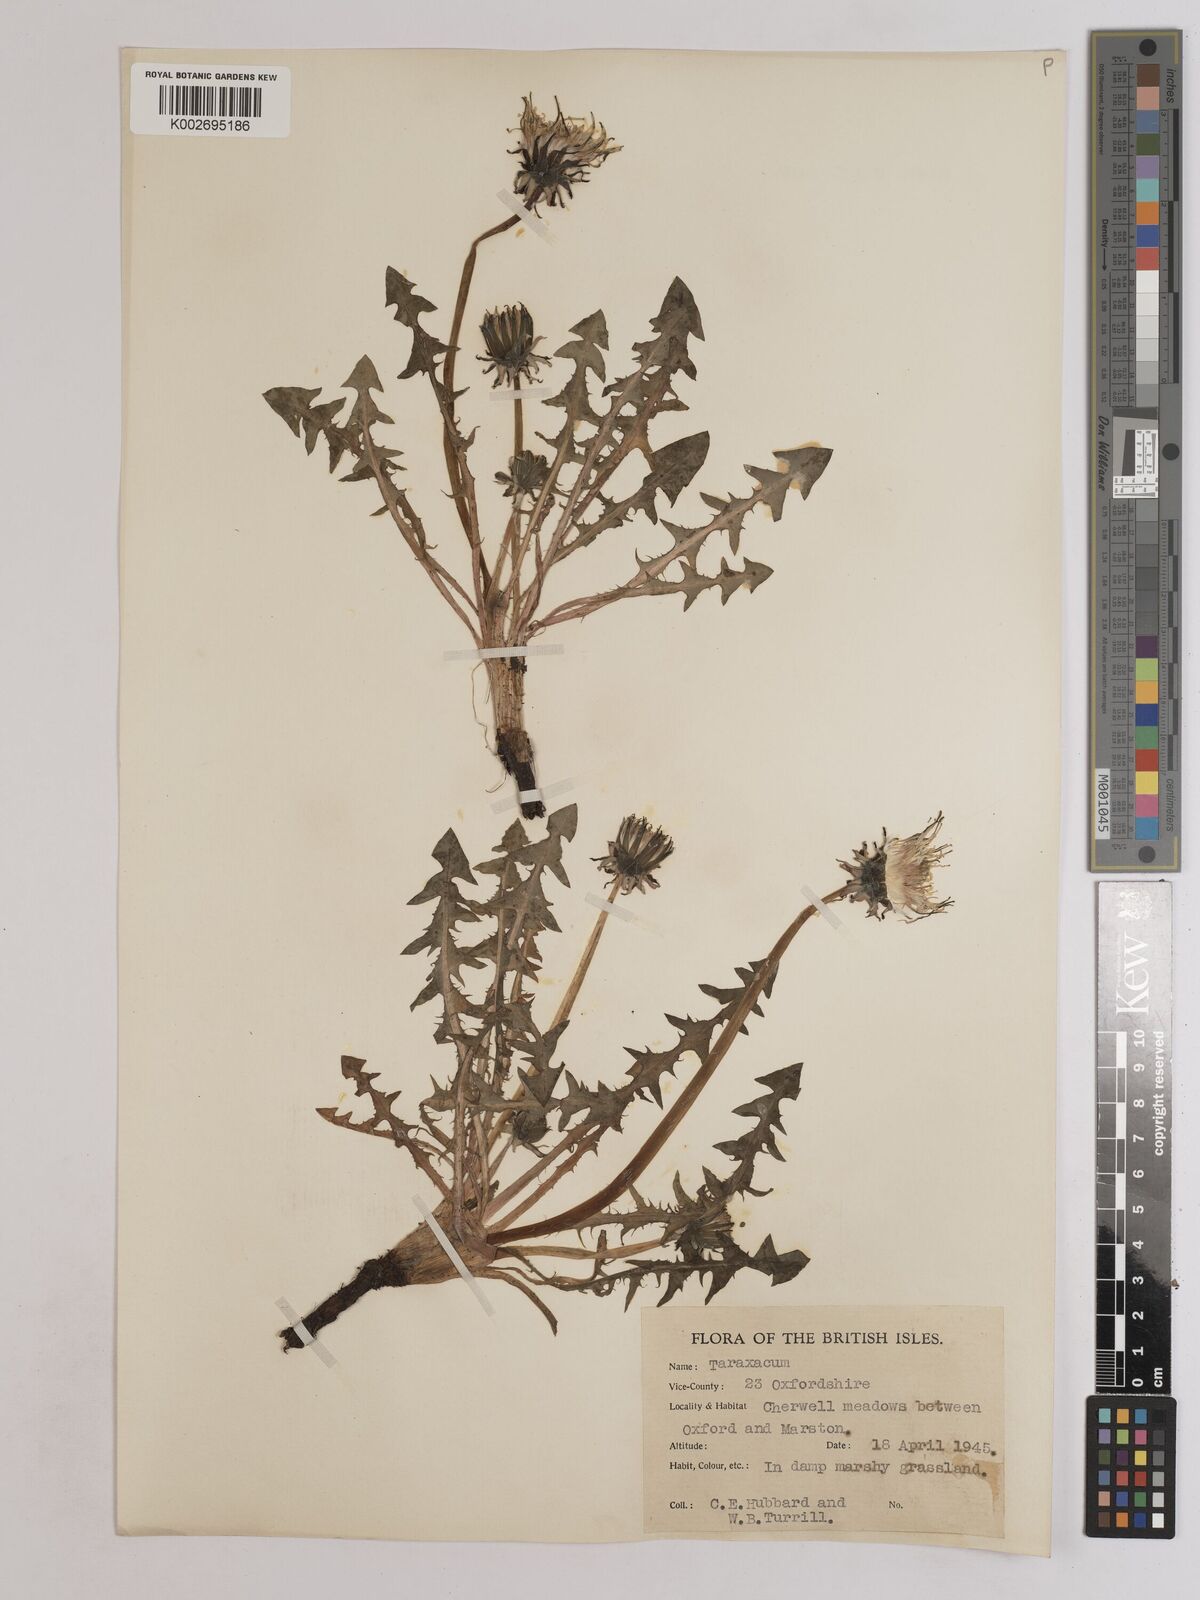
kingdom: Plantae
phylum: Tracheophyta
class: Magnoliopsida
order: Asterales
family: Asteraceae
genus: Taraxacum
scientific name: Taraxacum officinale
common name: Common dandelion
